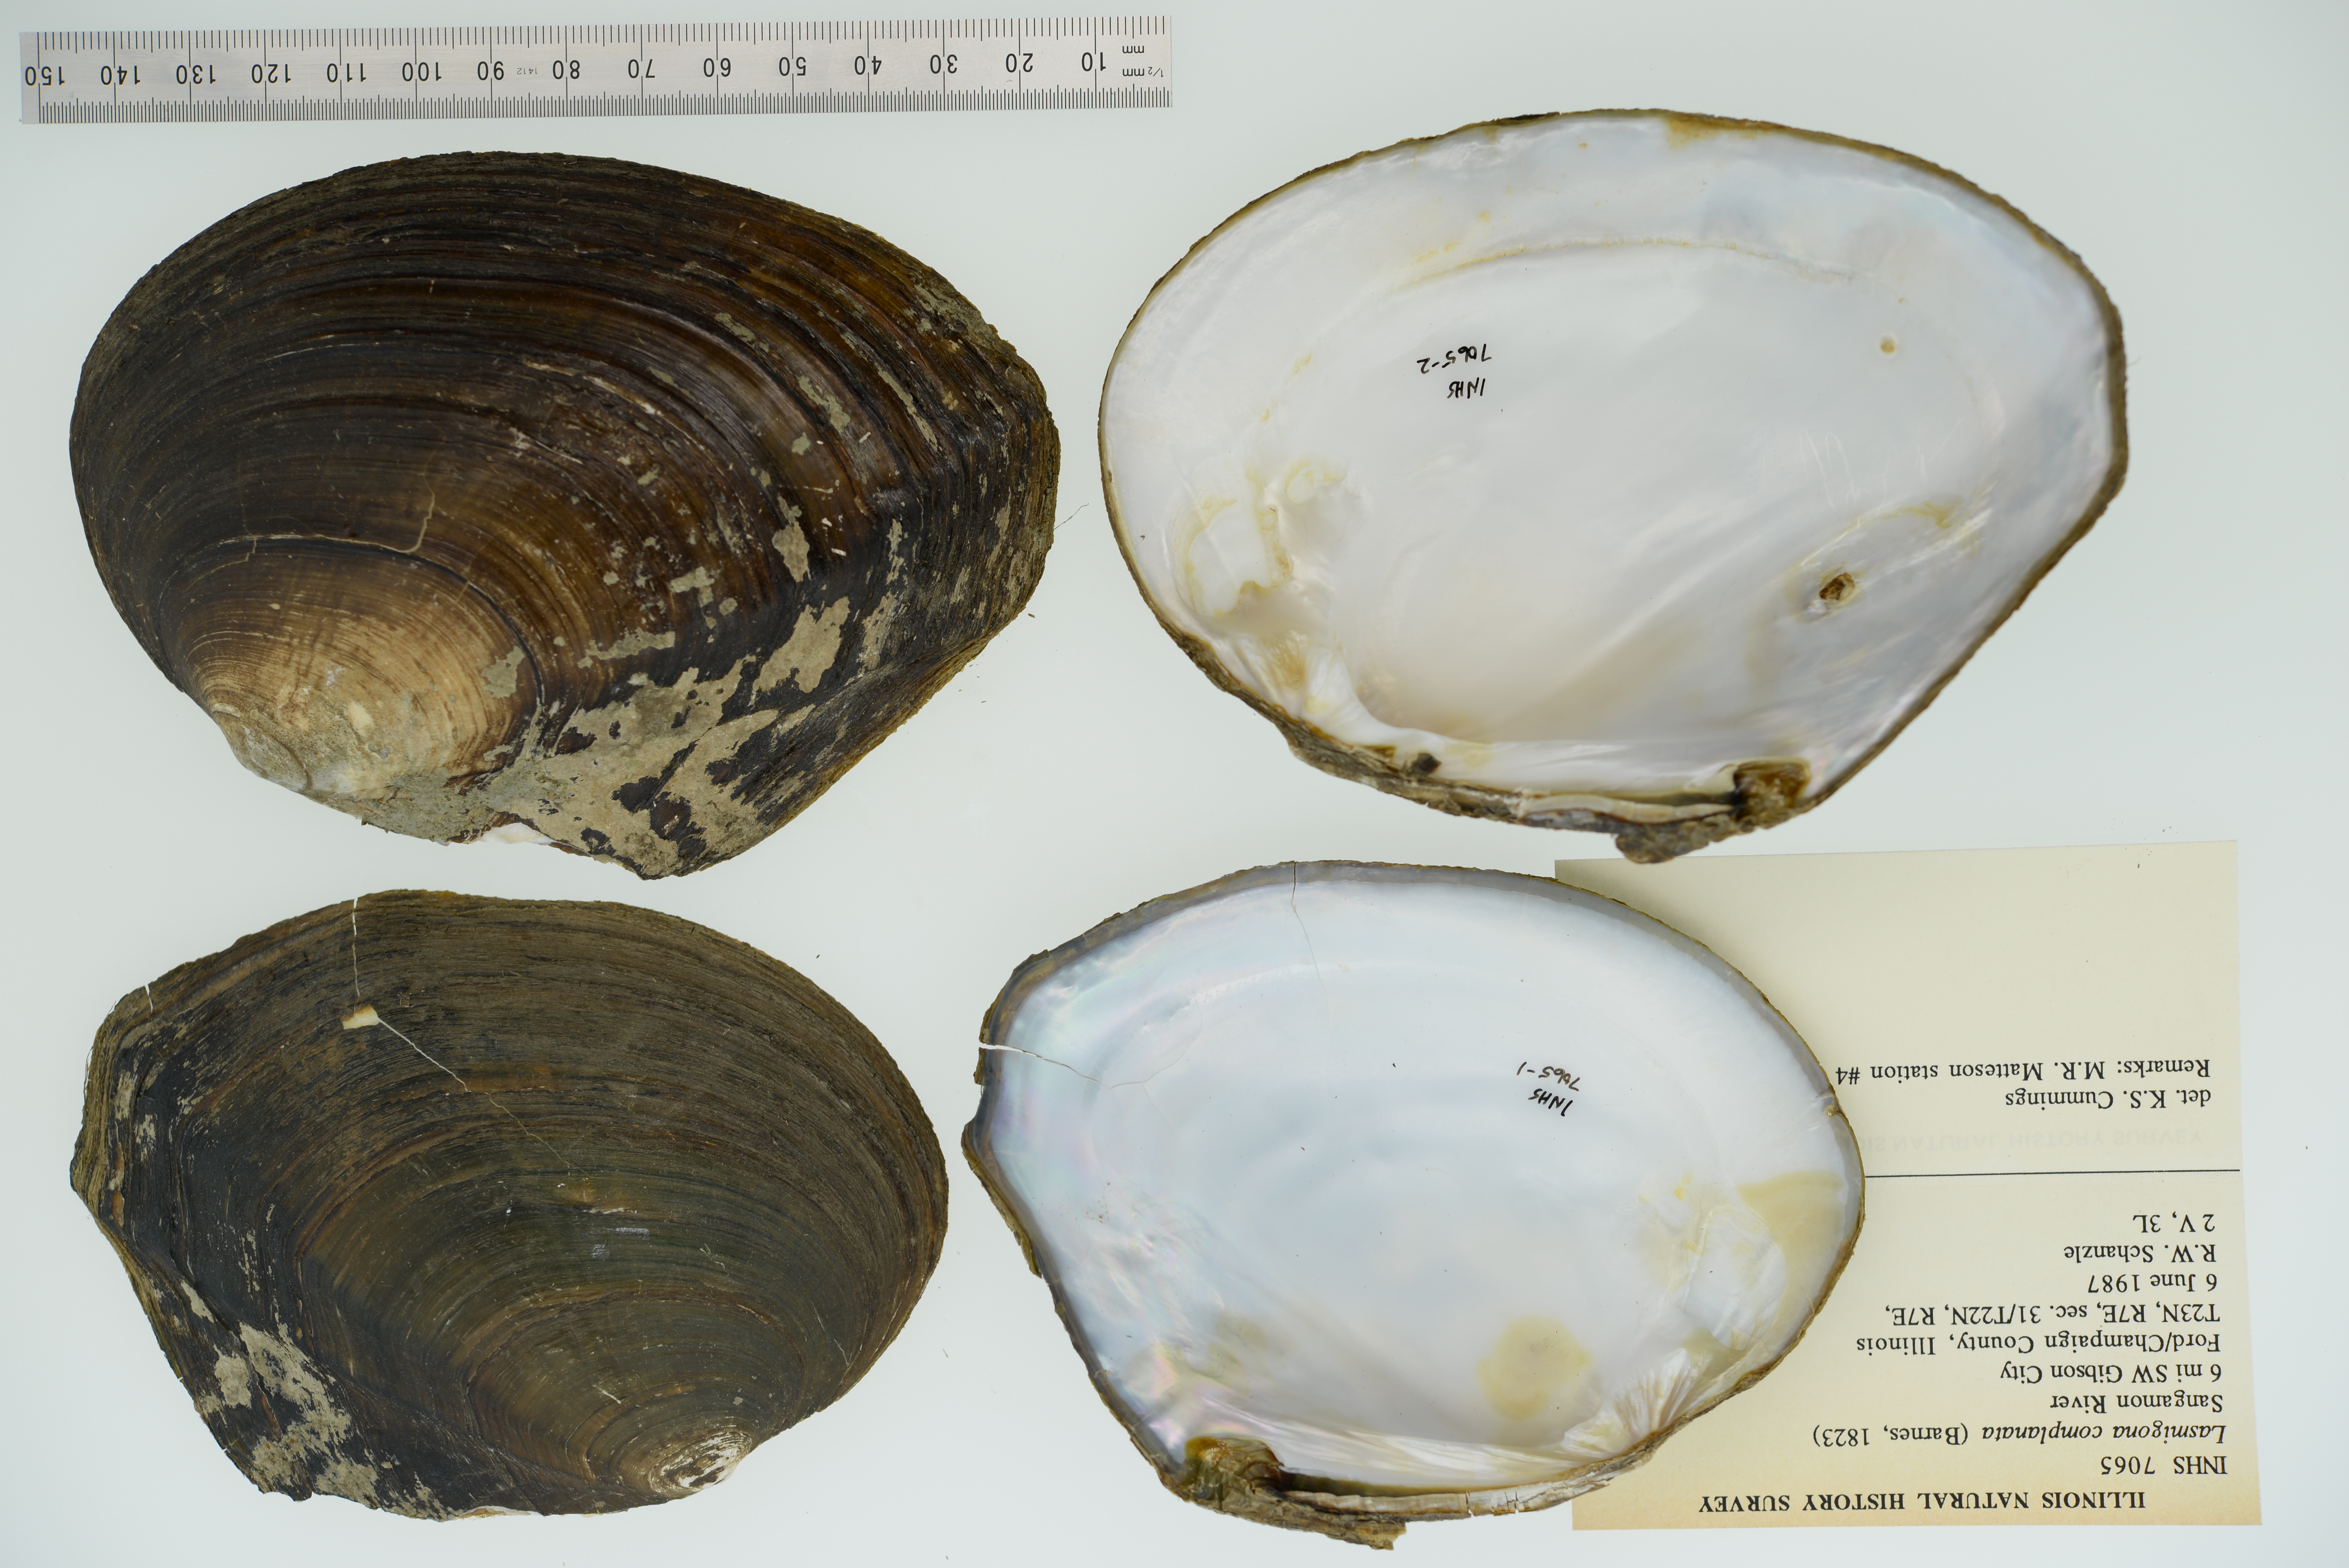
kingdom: Animalia
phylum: Mollusca
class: Bivalvia
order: Unionida
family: Unionidae
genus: Lasmigona
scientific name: Lasmigona complanata
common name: White heelsplitter
